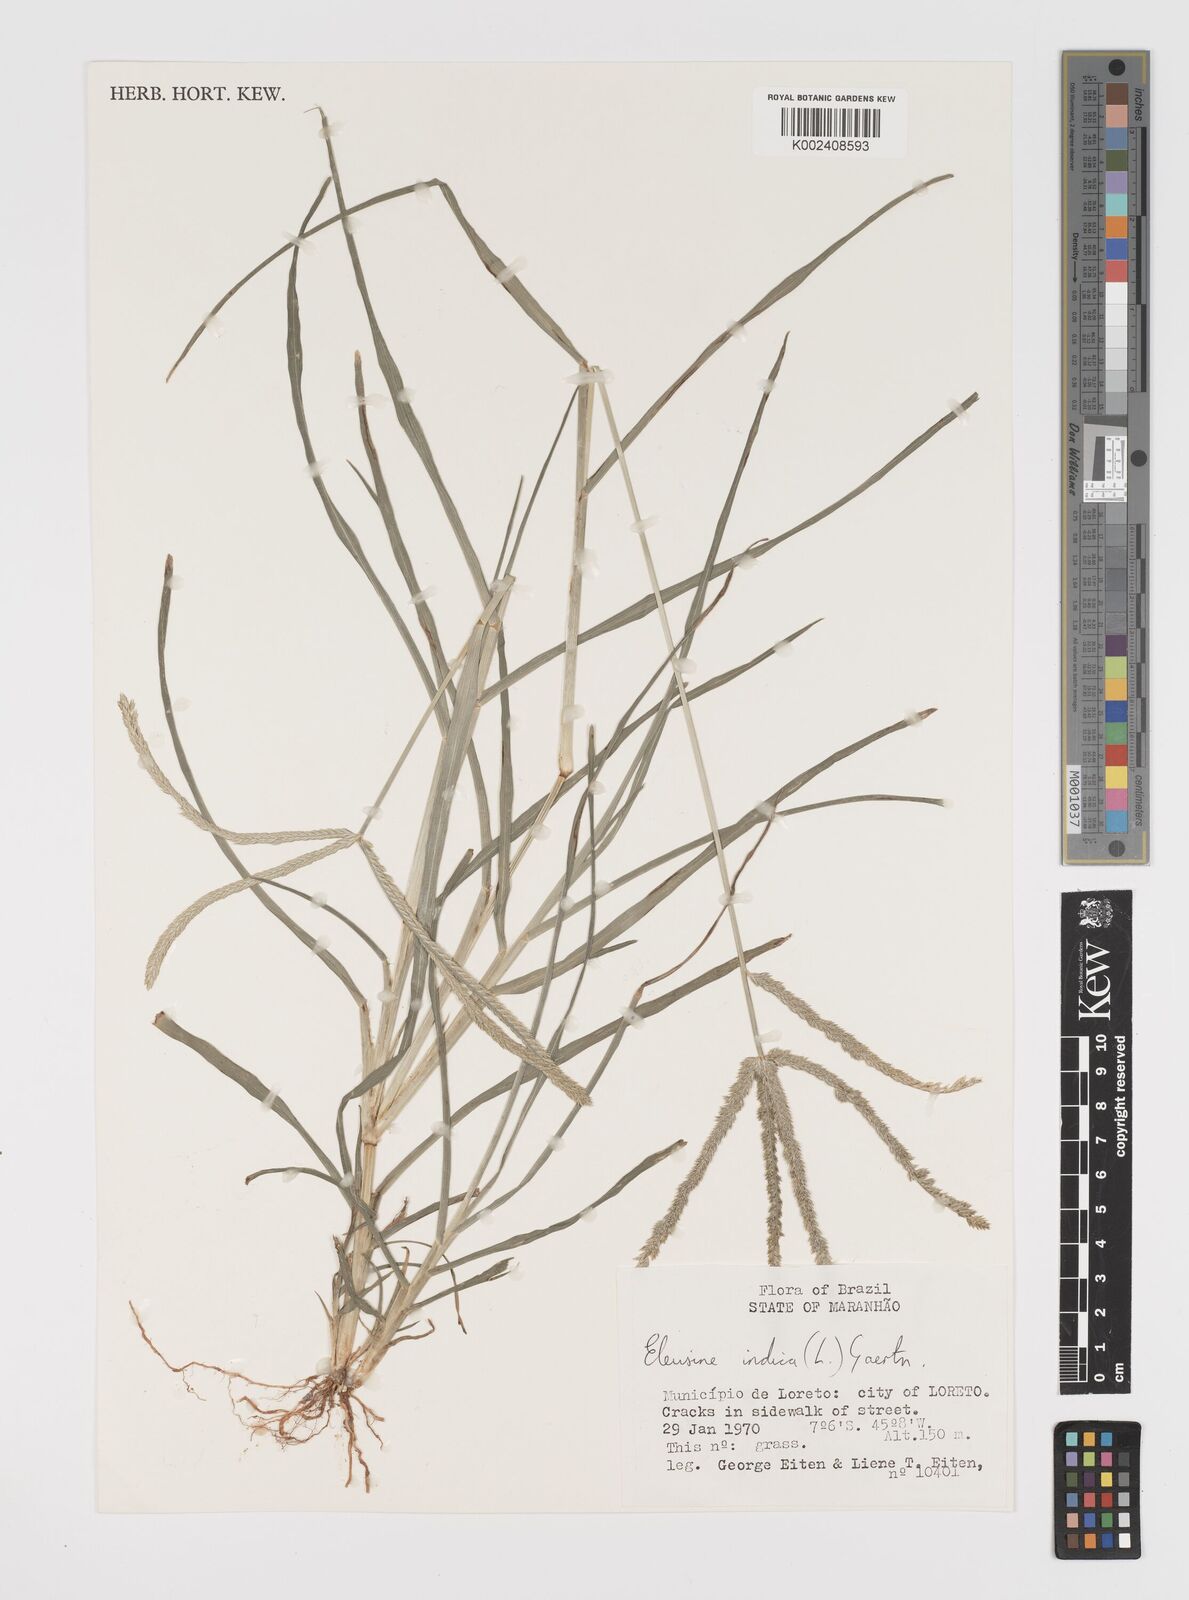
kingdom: Plantae
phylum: Tracheophyta
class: Liliopsida
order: Poales
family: Poaceae
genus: Eleusine
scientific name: Eleusine indica
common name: Yard-grass
